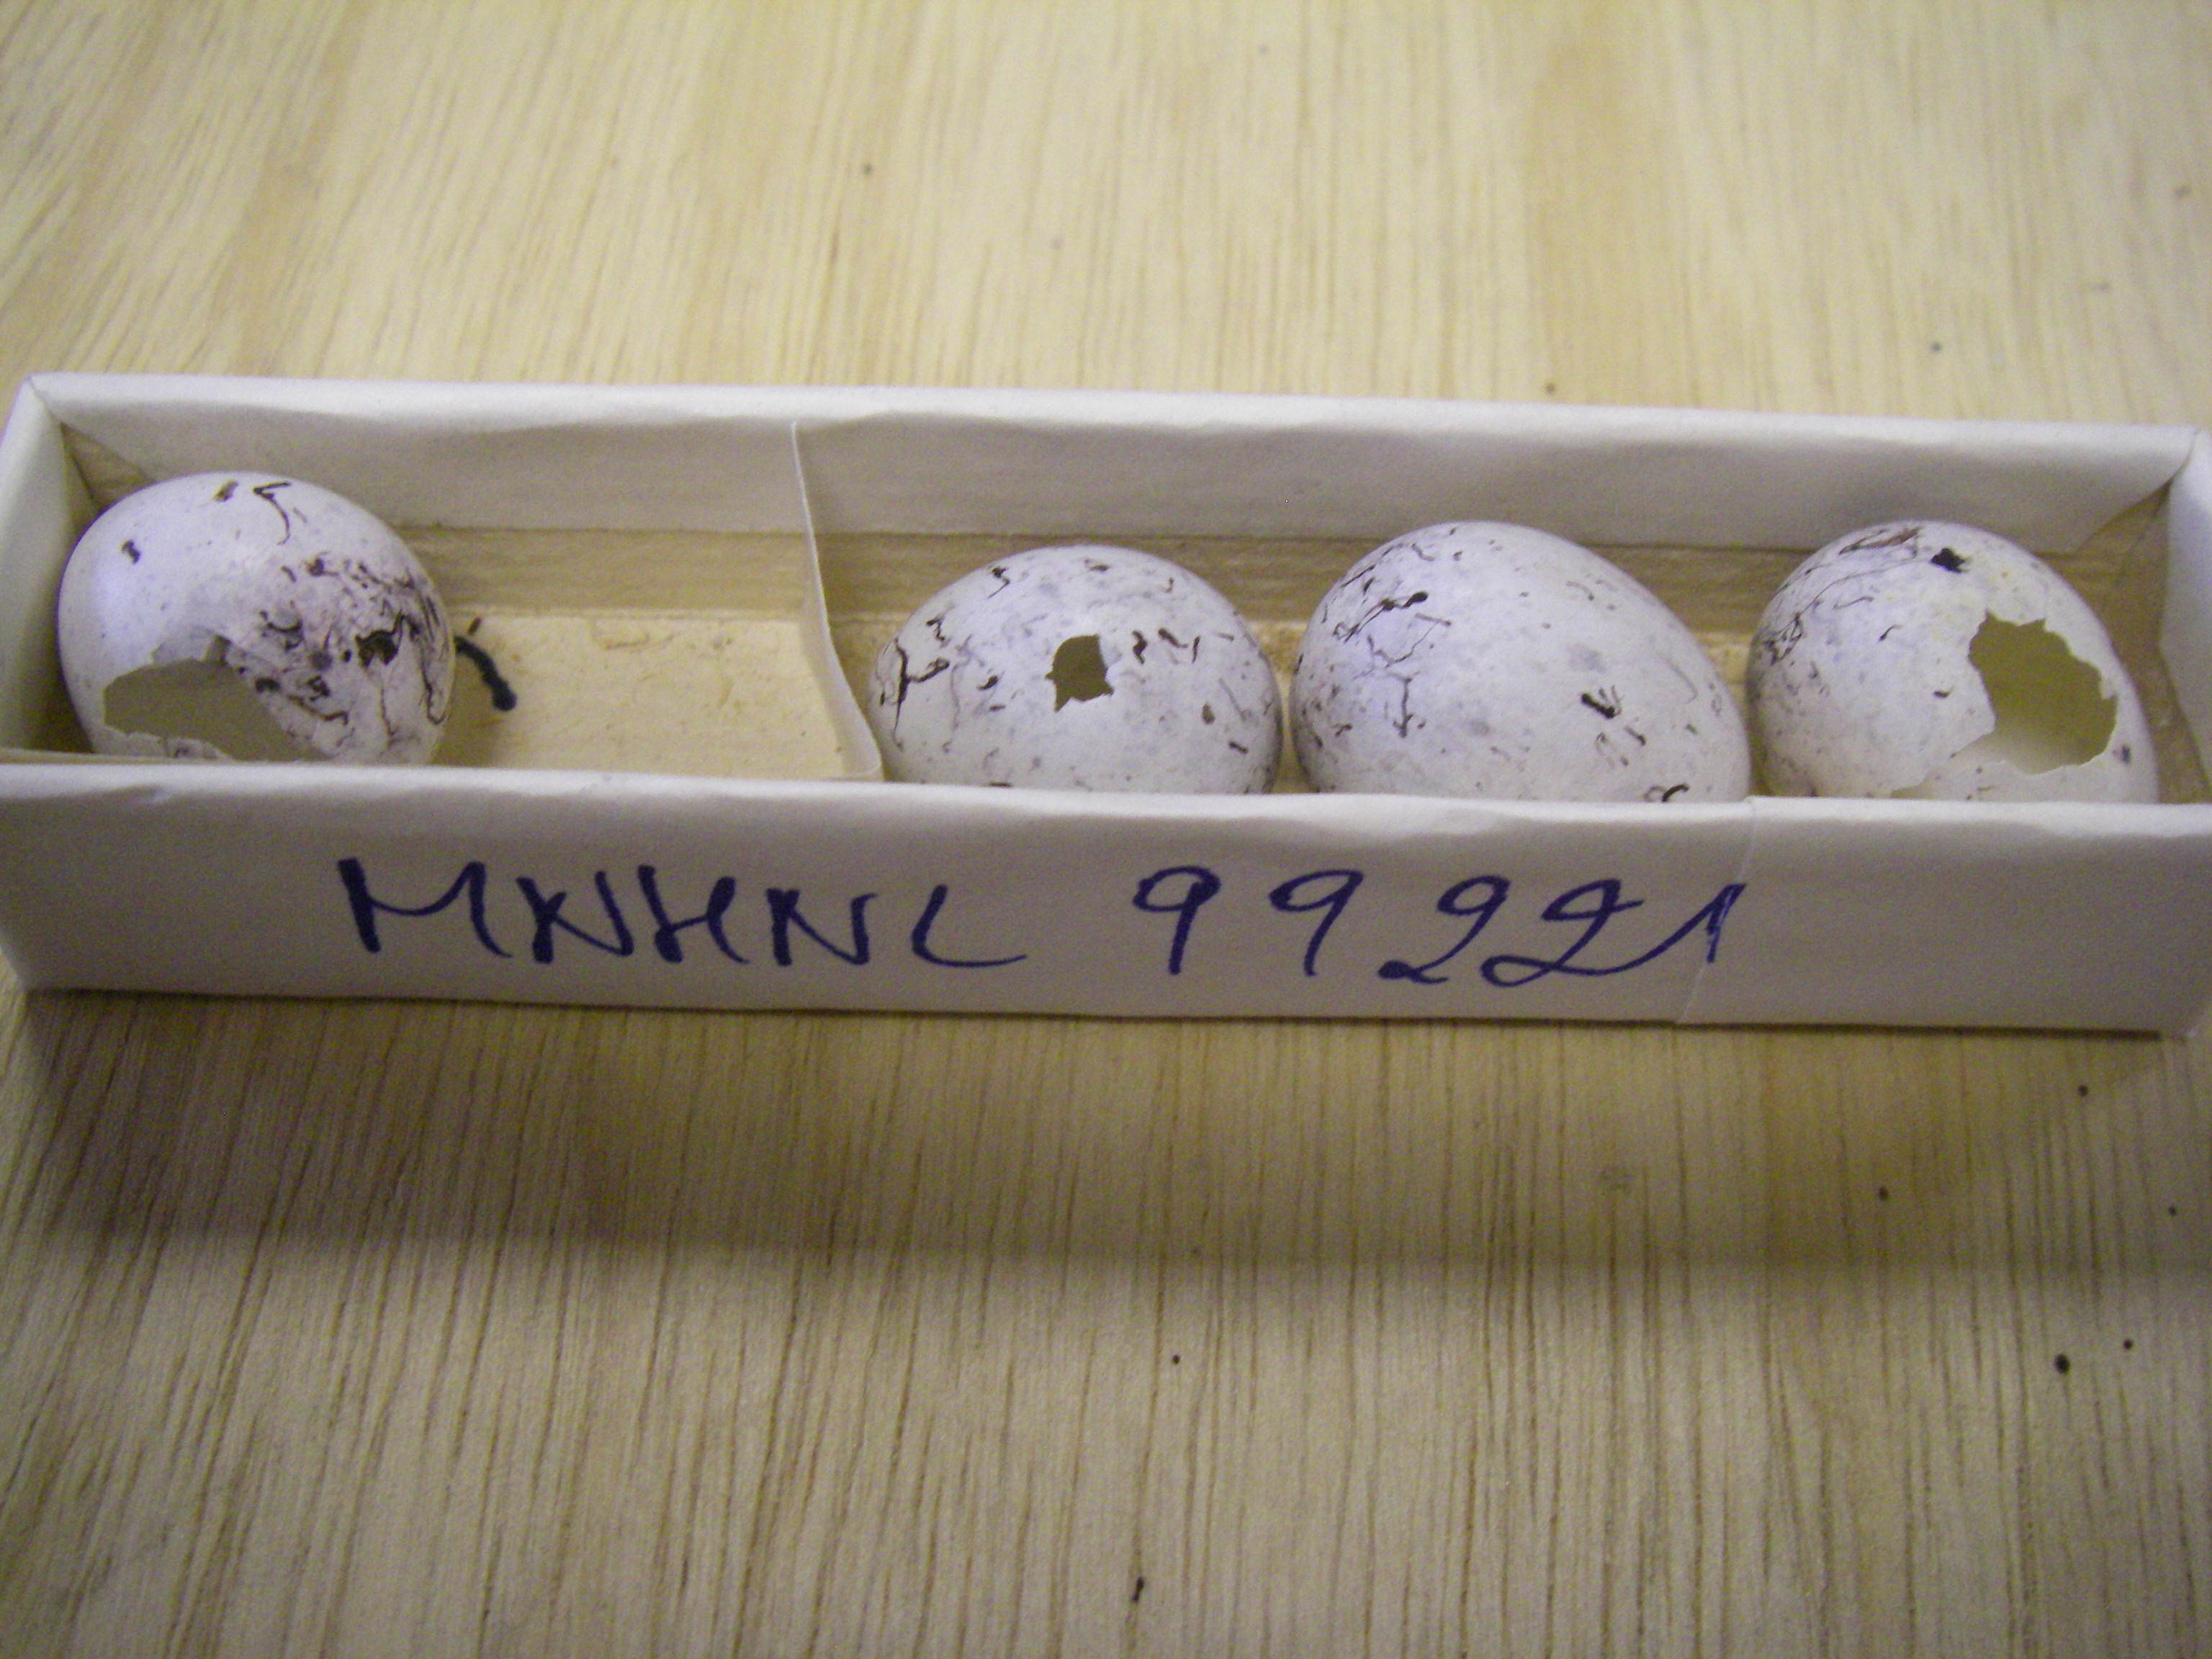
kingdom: Animalia
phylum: Chordata
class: Aves
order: Passeriformes
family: Emberizidae
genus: Emberiza
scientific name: Emberiza citrinella
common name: Yellowhammer
